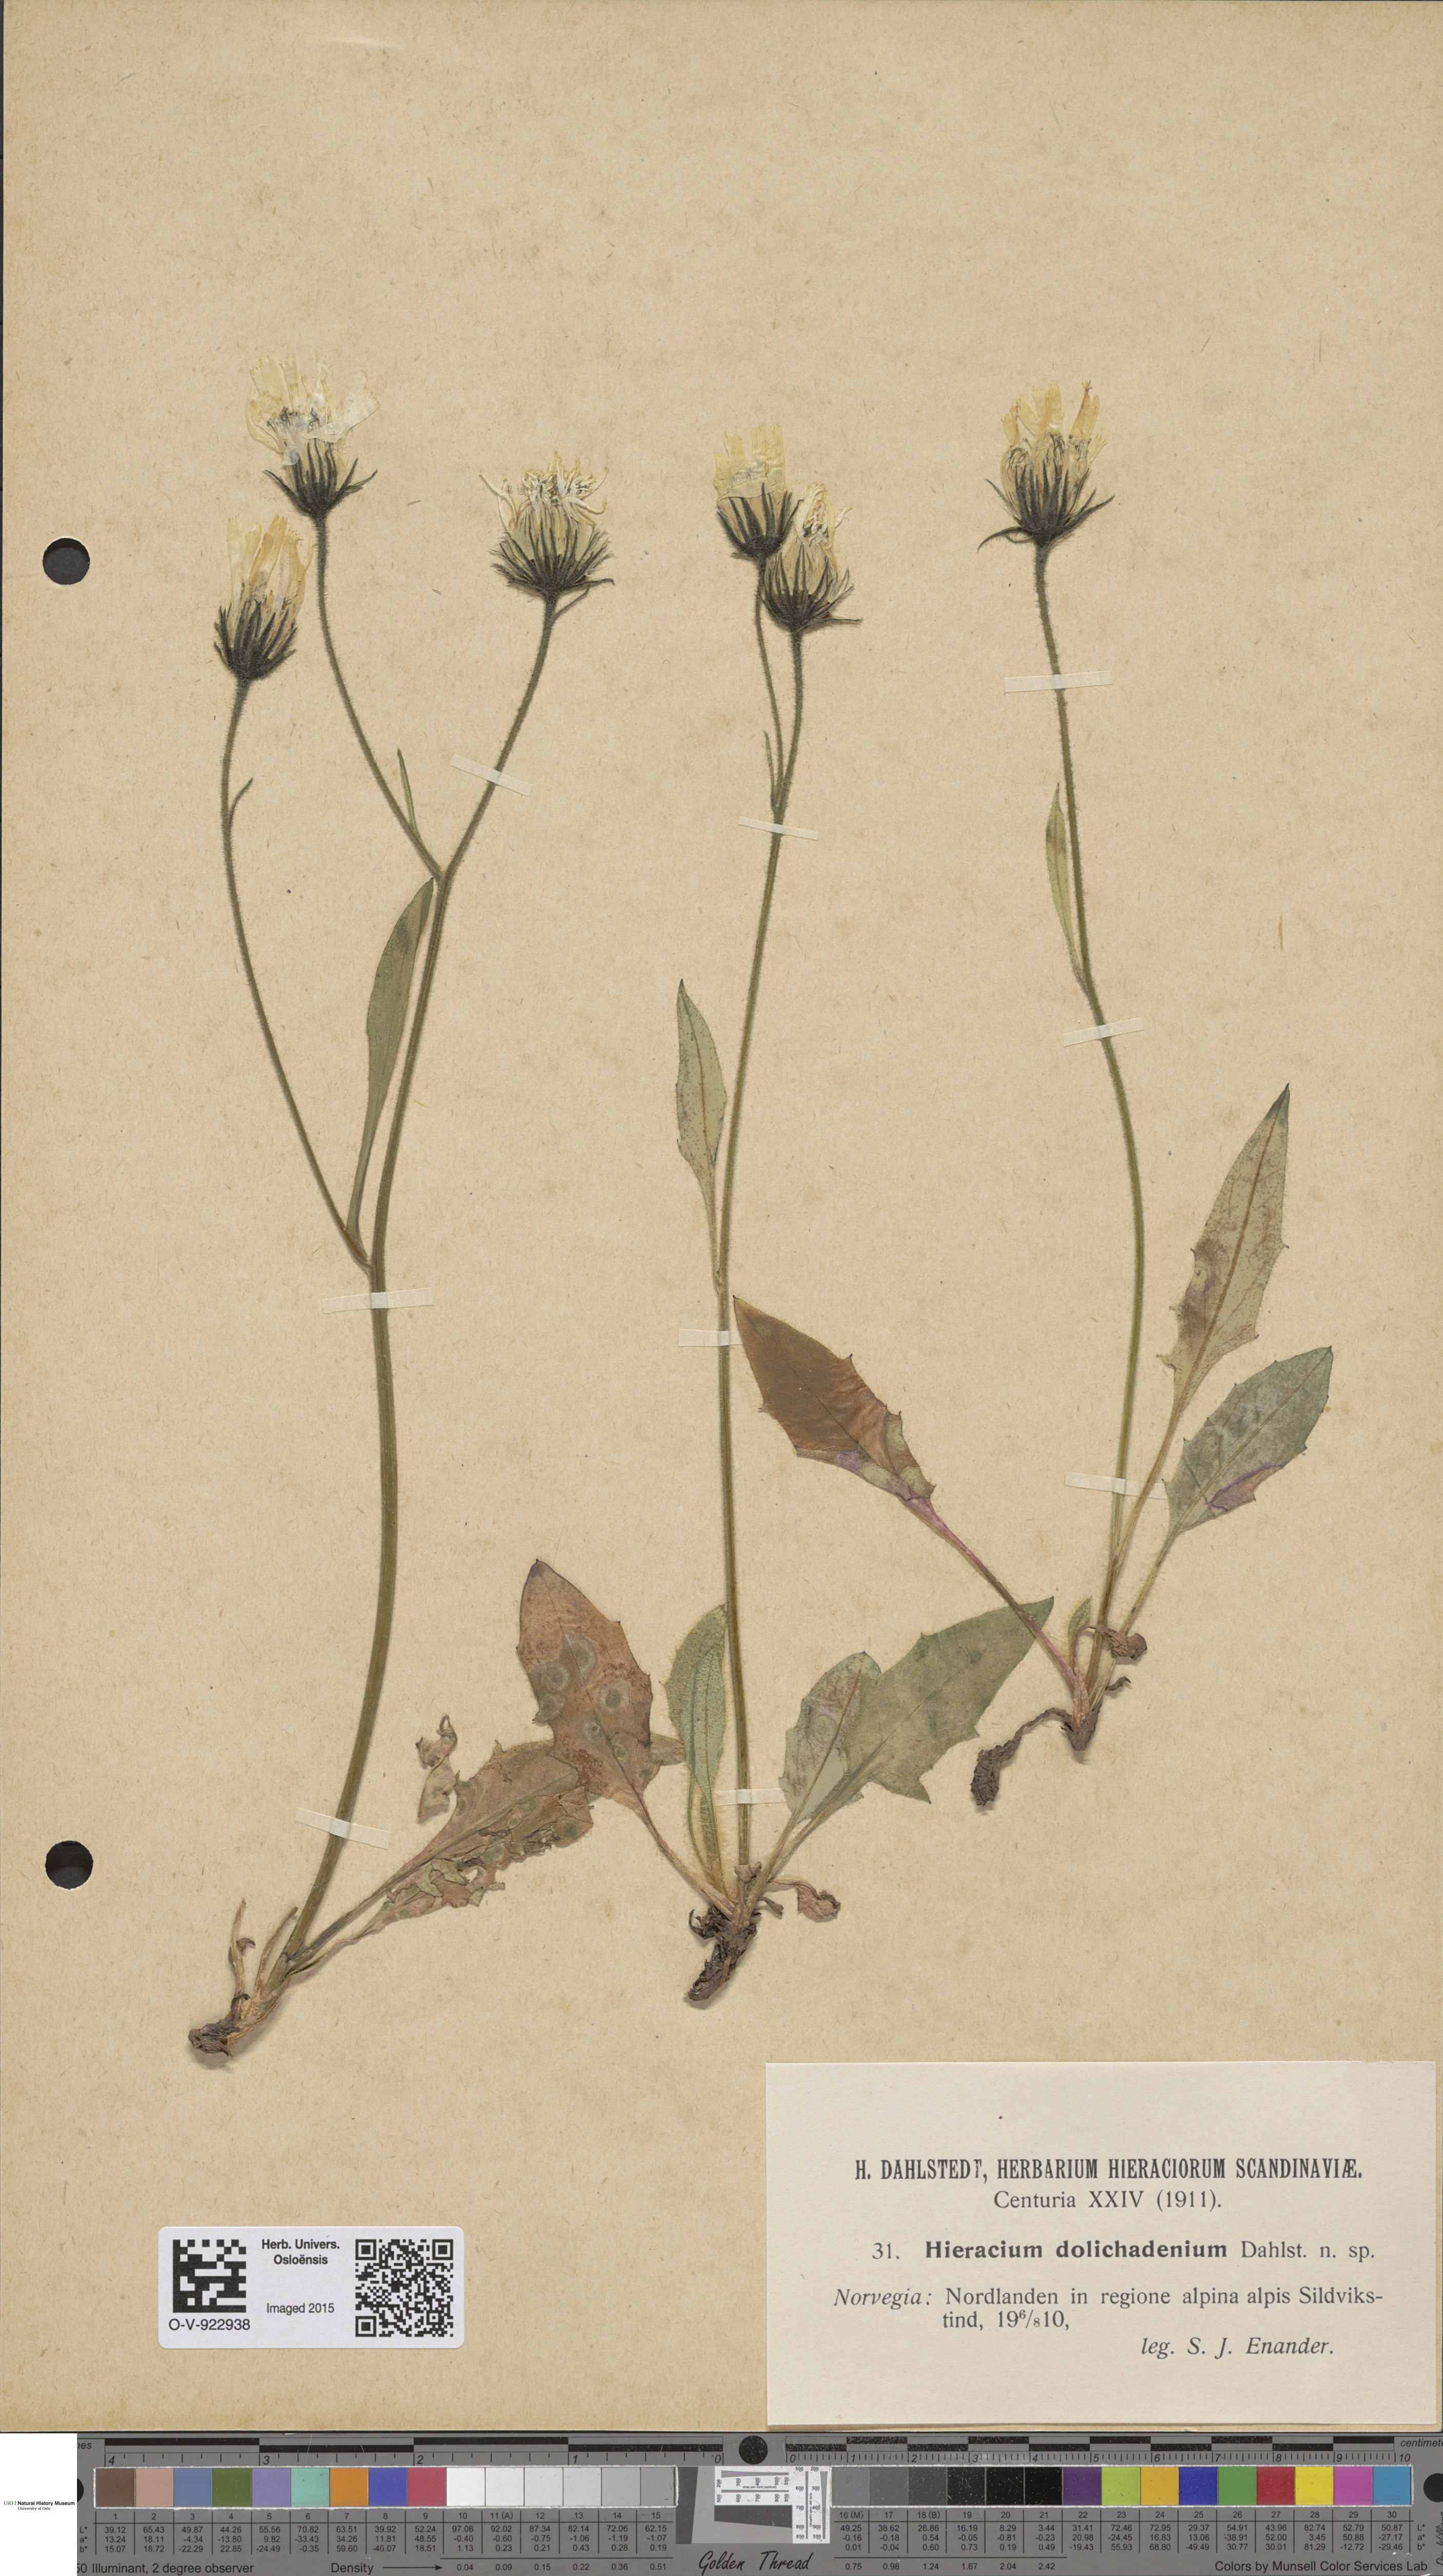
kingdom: Plantae
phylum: Tracheophyta
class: Magnoliopsida
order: Asterales
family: Asteraceae
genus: Hieracium
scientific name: Hieracium
